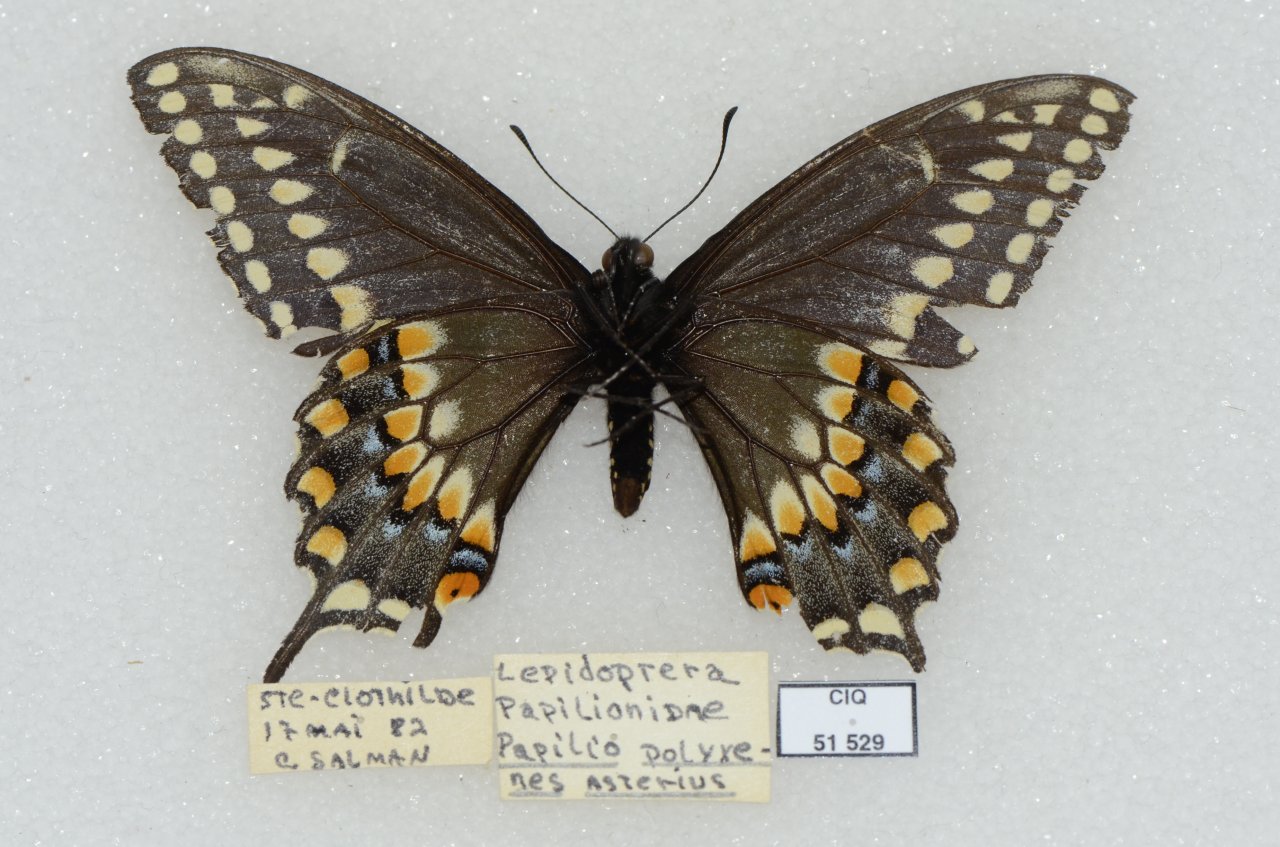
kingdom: Animalia
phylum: Arthropoda
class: Insecta
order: Lepidoptera
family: Papilionidae
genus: Papilio
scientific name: Papilio polyxenes
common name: Black Swallowtail
